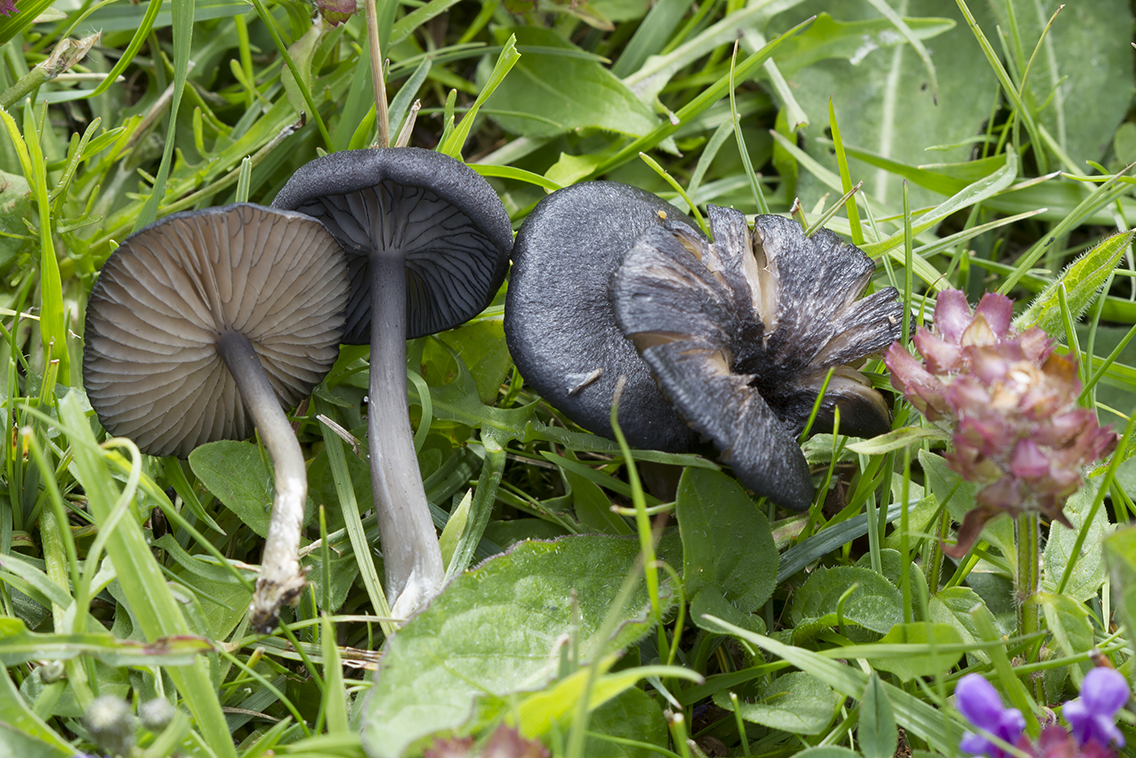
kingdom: Fungi
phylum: Basidiomycota
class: Agaricomycetes
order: Agaricales
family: Entolomataceae
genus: Entoloma
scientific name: Entoloma serrulatum
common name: savbladet rødblad
